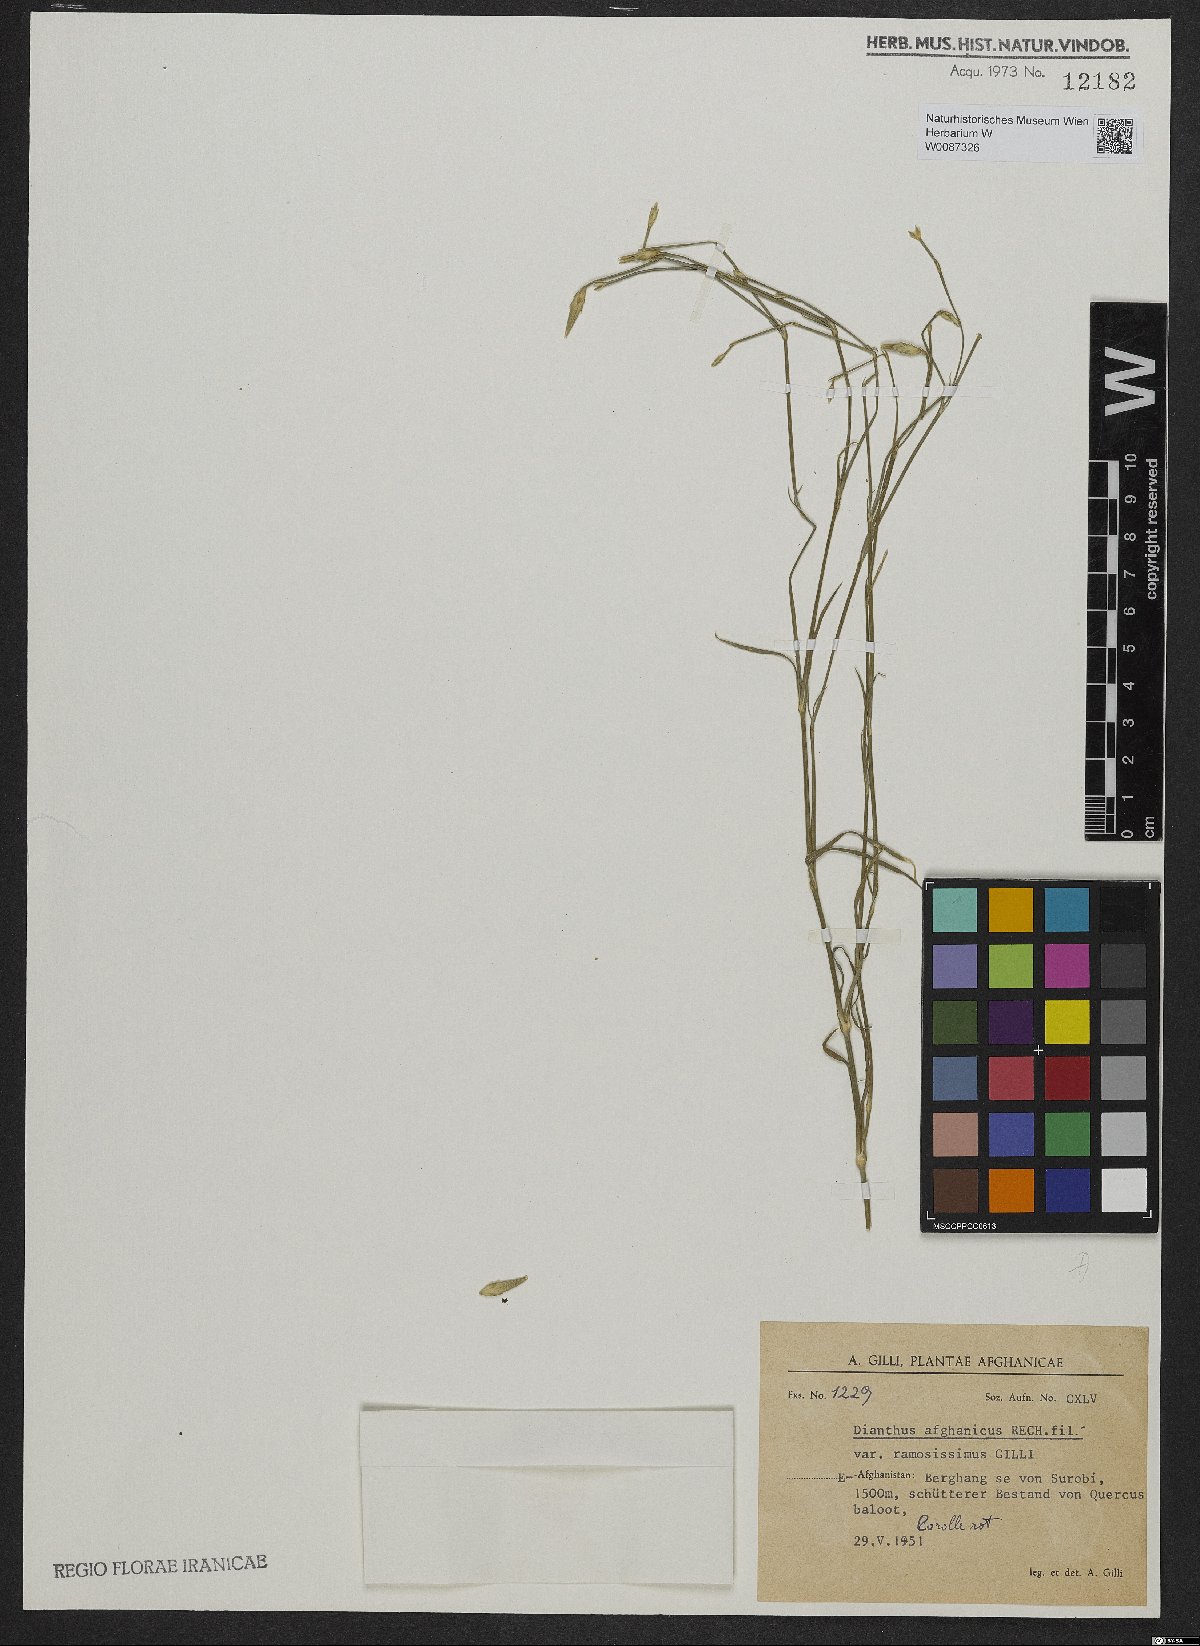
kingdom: Plantae
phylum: Tracheophyta
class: Magnoliopsida
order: Caryophyllales
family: Caryophyllaceae
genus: Dianthus
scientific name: Dianthus afghanicus
